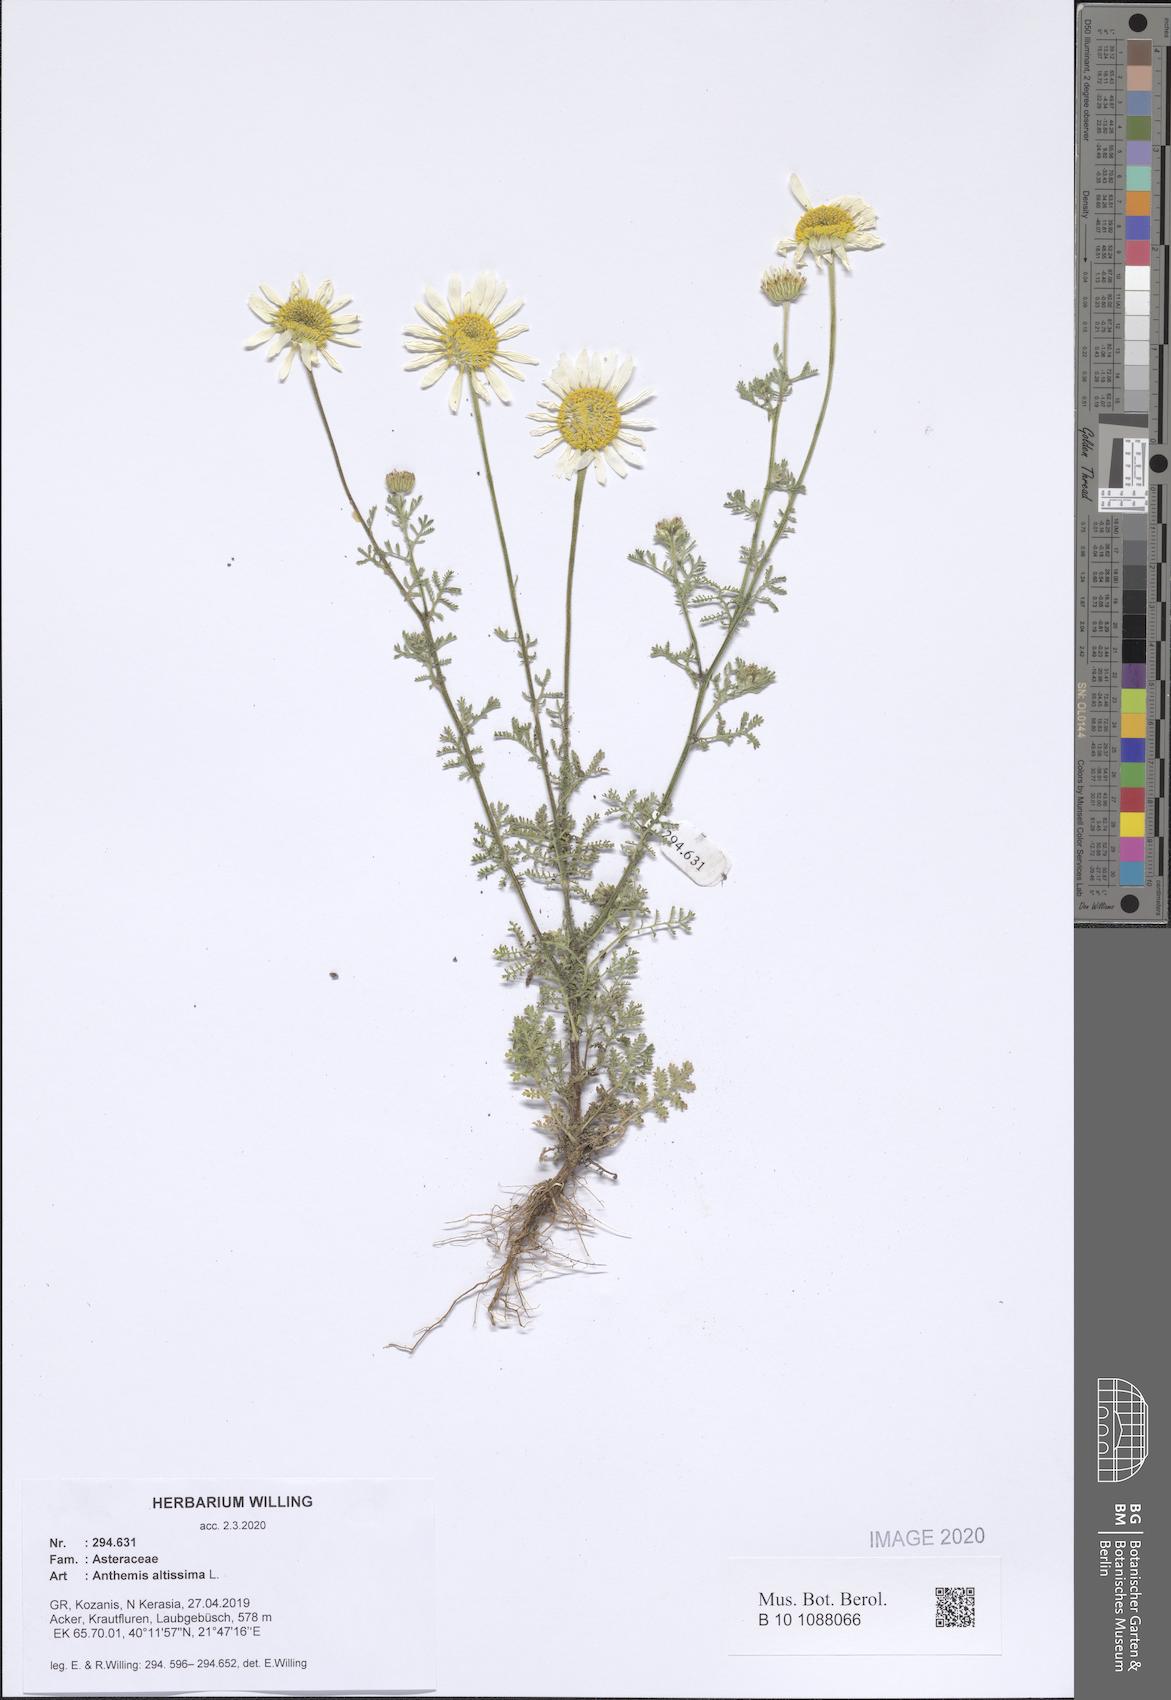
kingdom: Plantae
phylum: Tracheophyta
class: Magnoliopsida
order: Asterales
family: Asteraceae
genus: Cota
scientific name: Cota altissima
